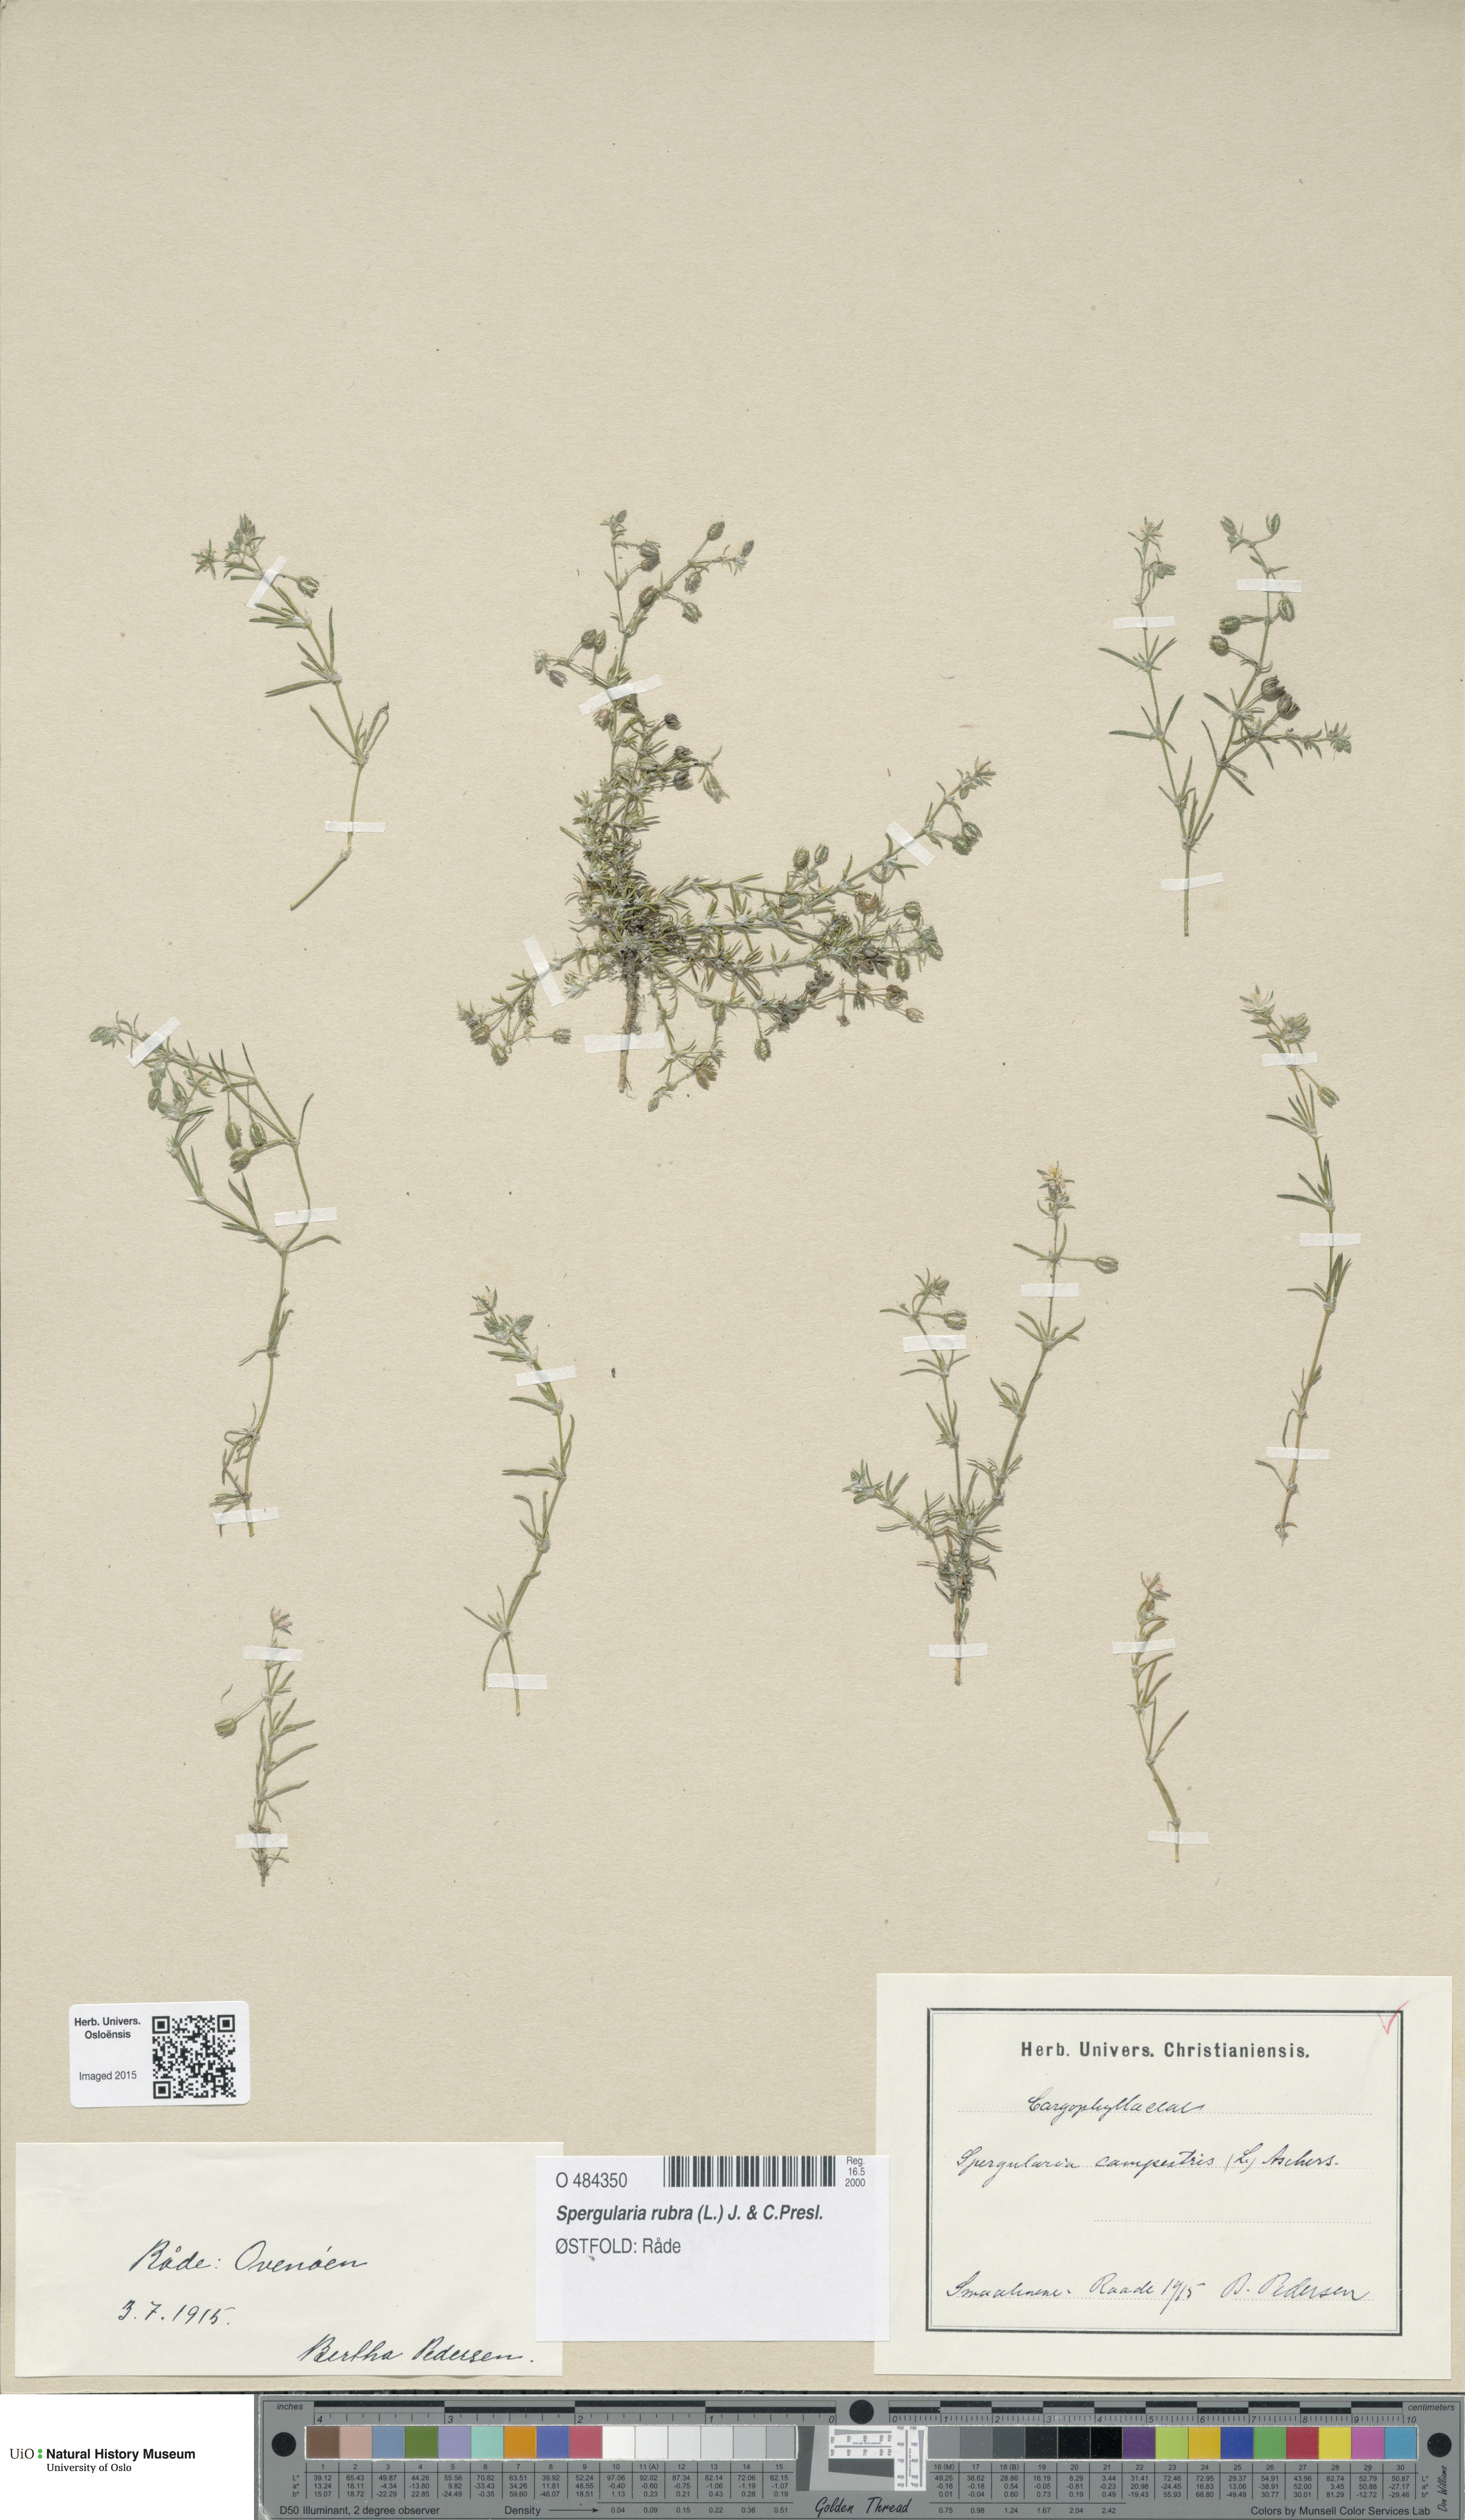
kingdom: Plantae
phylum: Tracheophyta
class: Magnoliopsida
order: Caryophyllales
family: Caryophyllaceae
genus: Spergularia
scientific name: Spergularia rubra
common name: Red sand-spurrey
